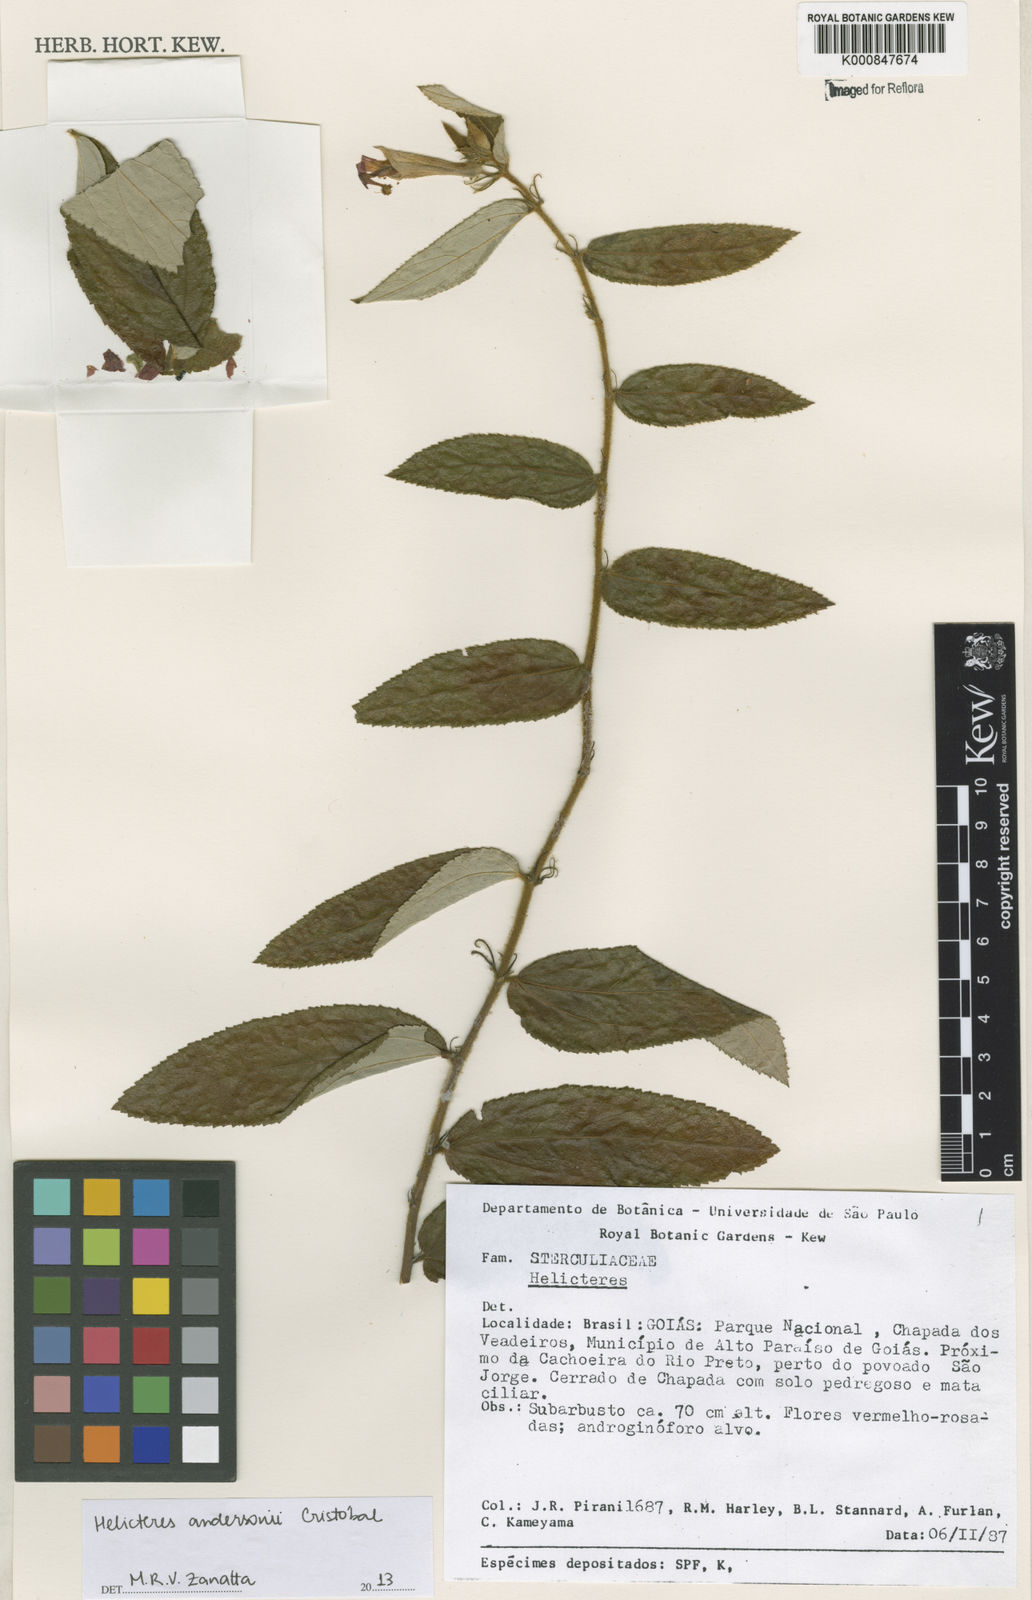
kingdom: Plantae
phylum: Tracheophyta
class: Magnoliopsida
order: Malvales
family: Malvaceae
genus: Helicteres
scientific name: Helicteres
